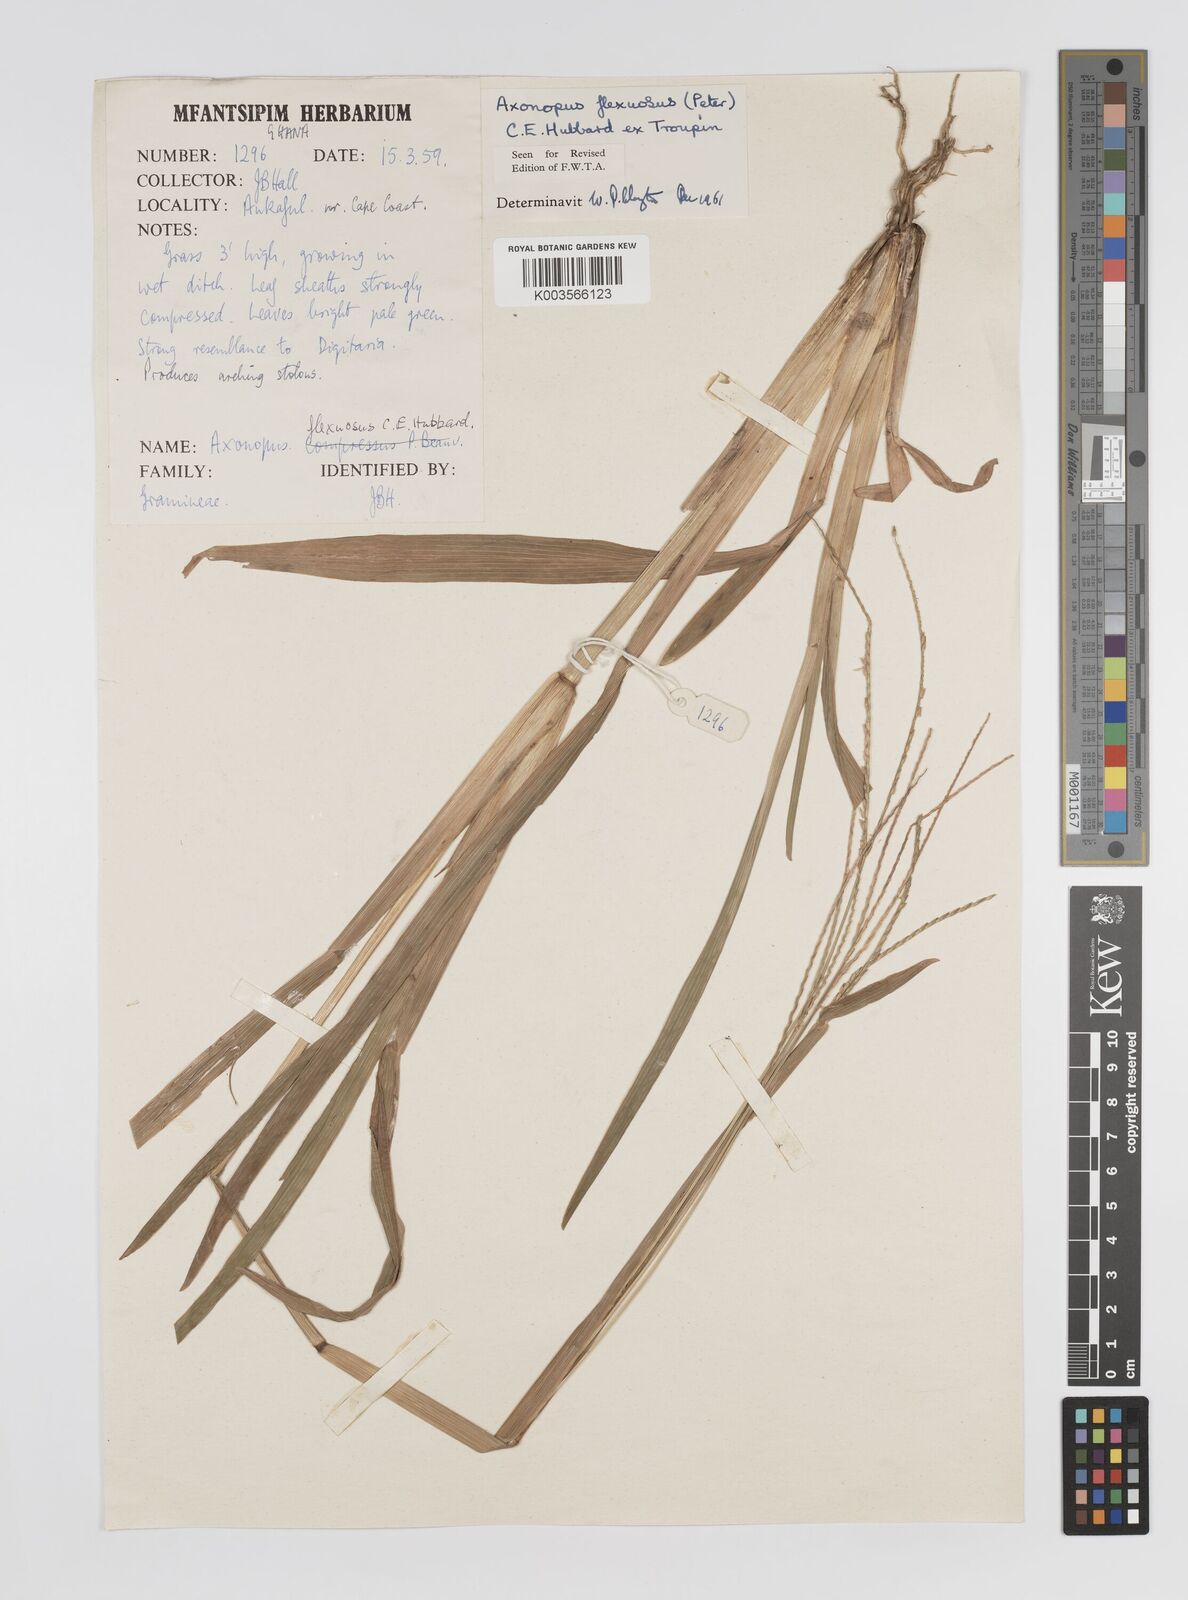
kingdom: Plantae
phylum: Tracheophyta
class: Liliopsida
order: Poales
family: Poaceae
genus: Axonopus
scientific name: Axonopus flexuosus
